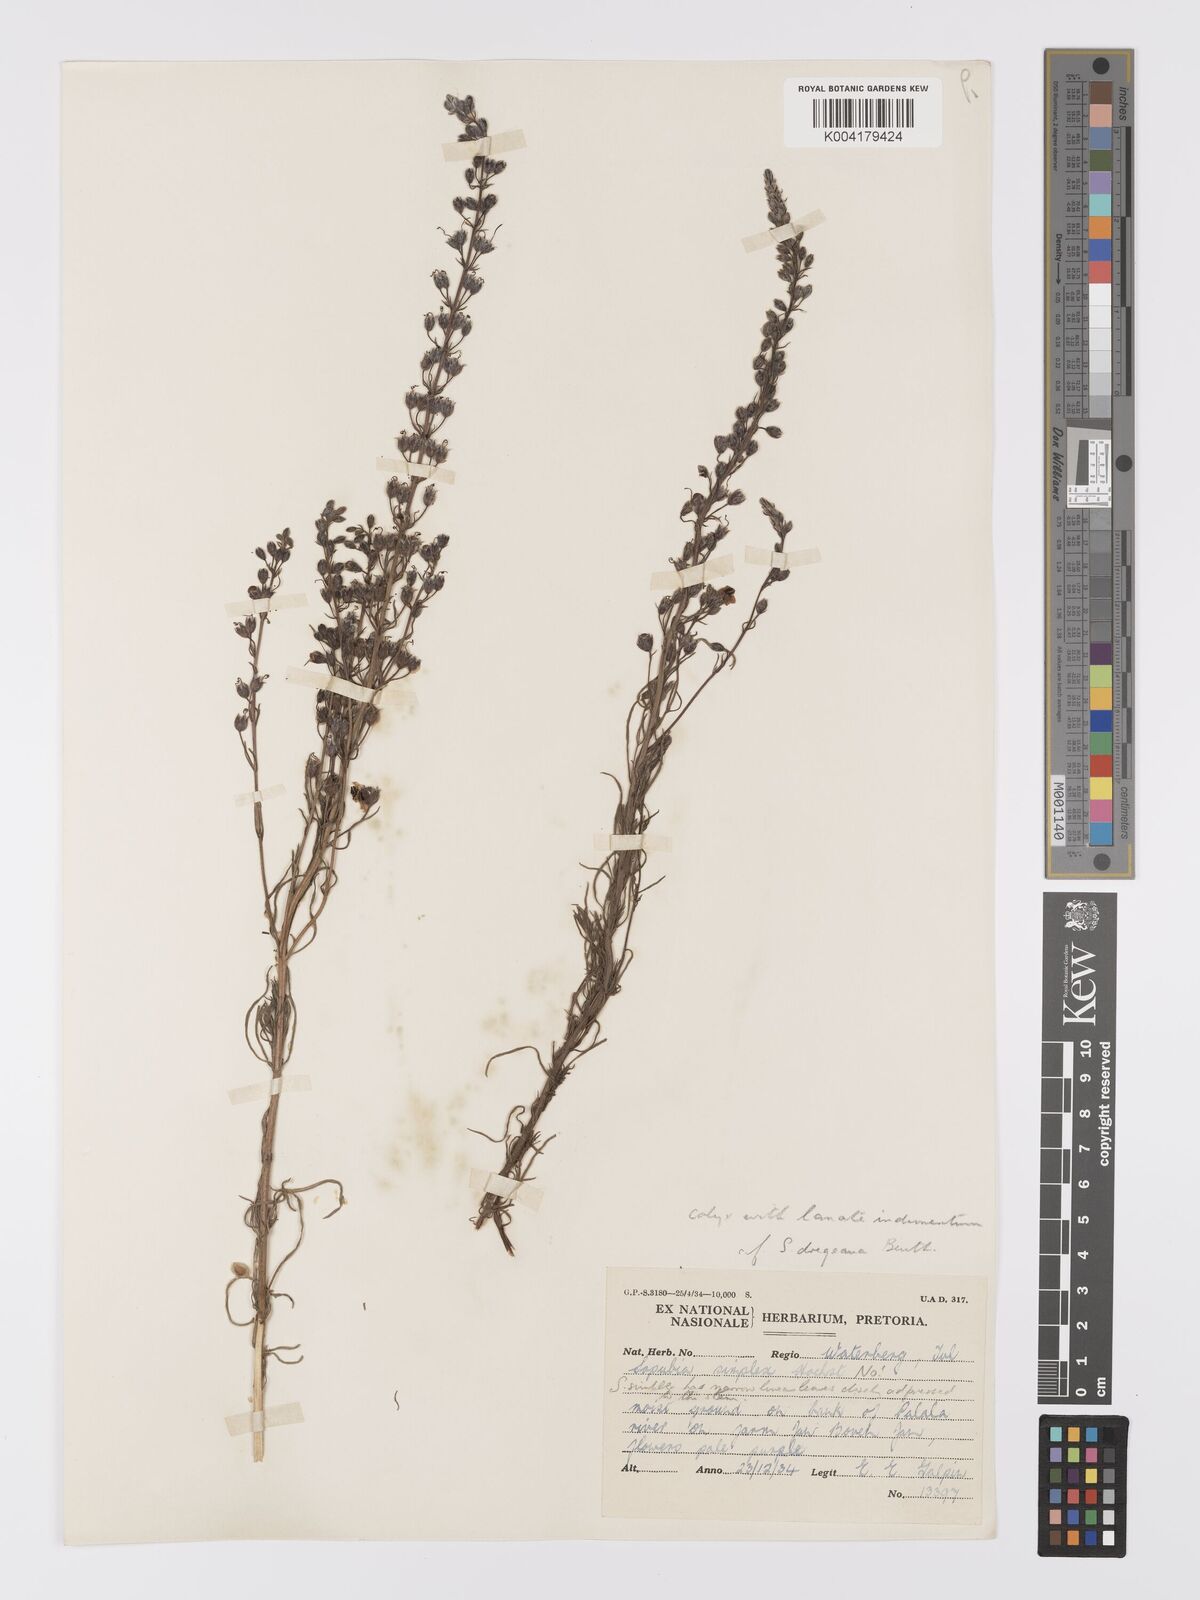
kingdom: Plantae
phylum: Tracheophyta
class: Magnoliopsida
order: Lamiales
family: Orobanchaceae
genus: Sopubia
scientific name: Sopubia simplex
